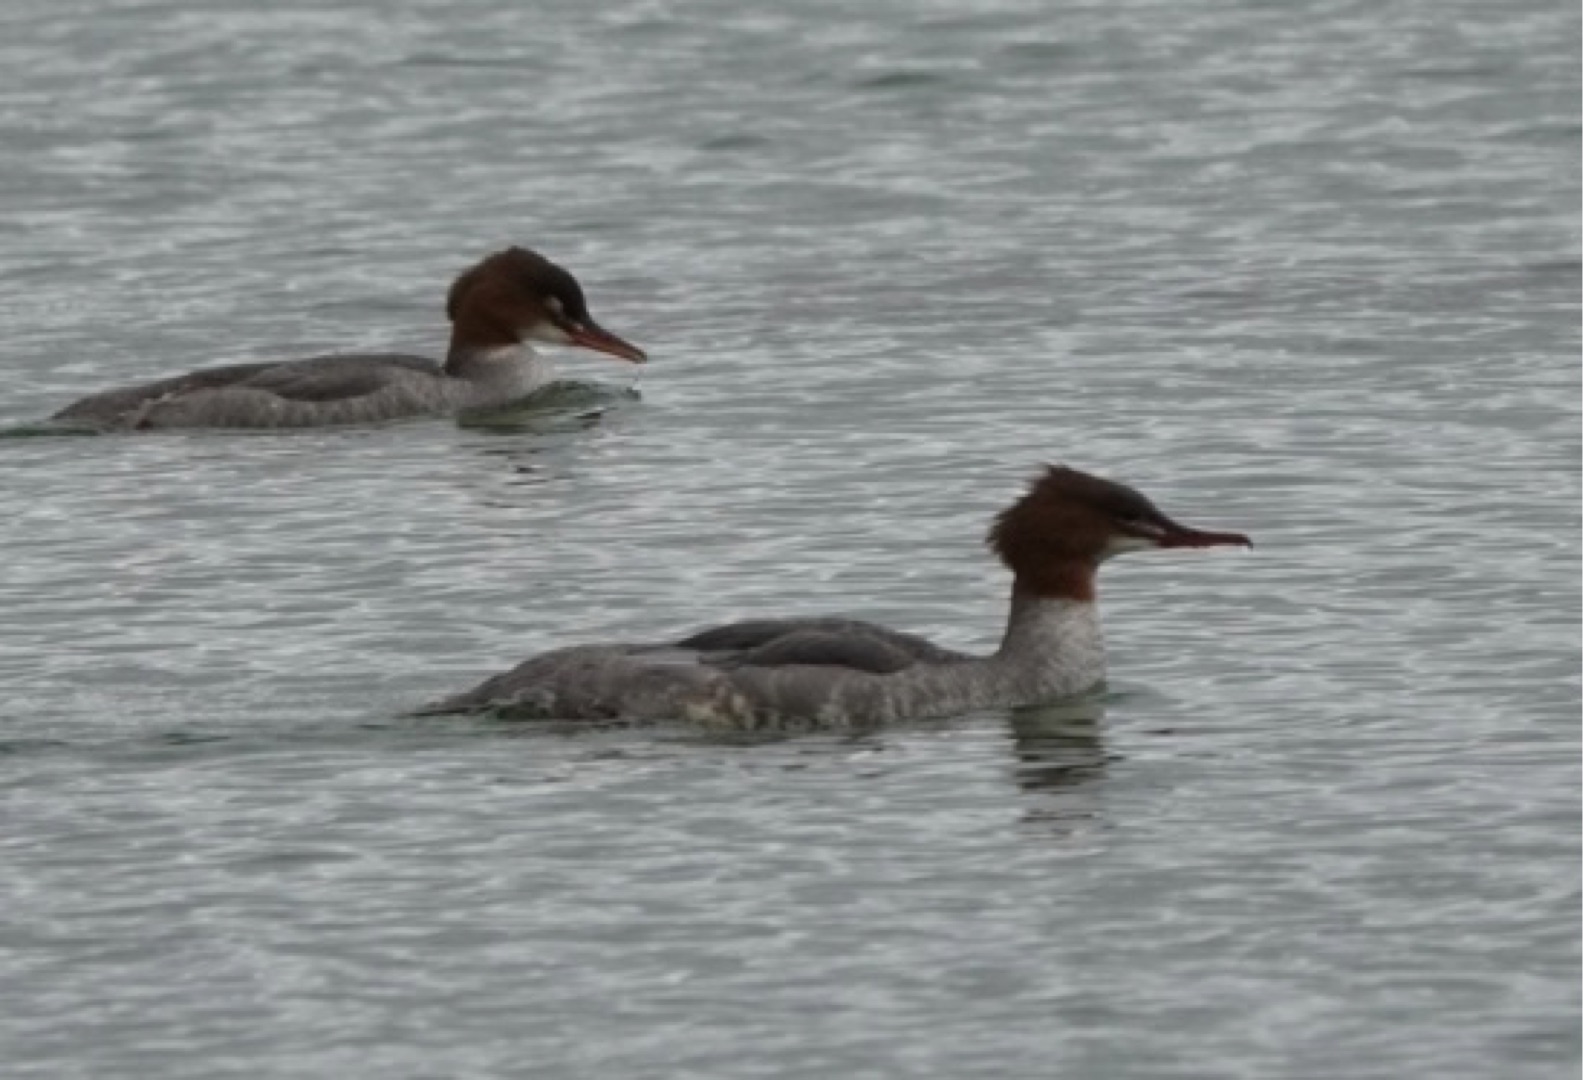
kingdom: Animalia
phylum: Chordata
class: Aves
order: Anseriformes
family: Anatidae
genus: Mergus
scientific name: Mergus merganser
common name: Stor skallesluger
